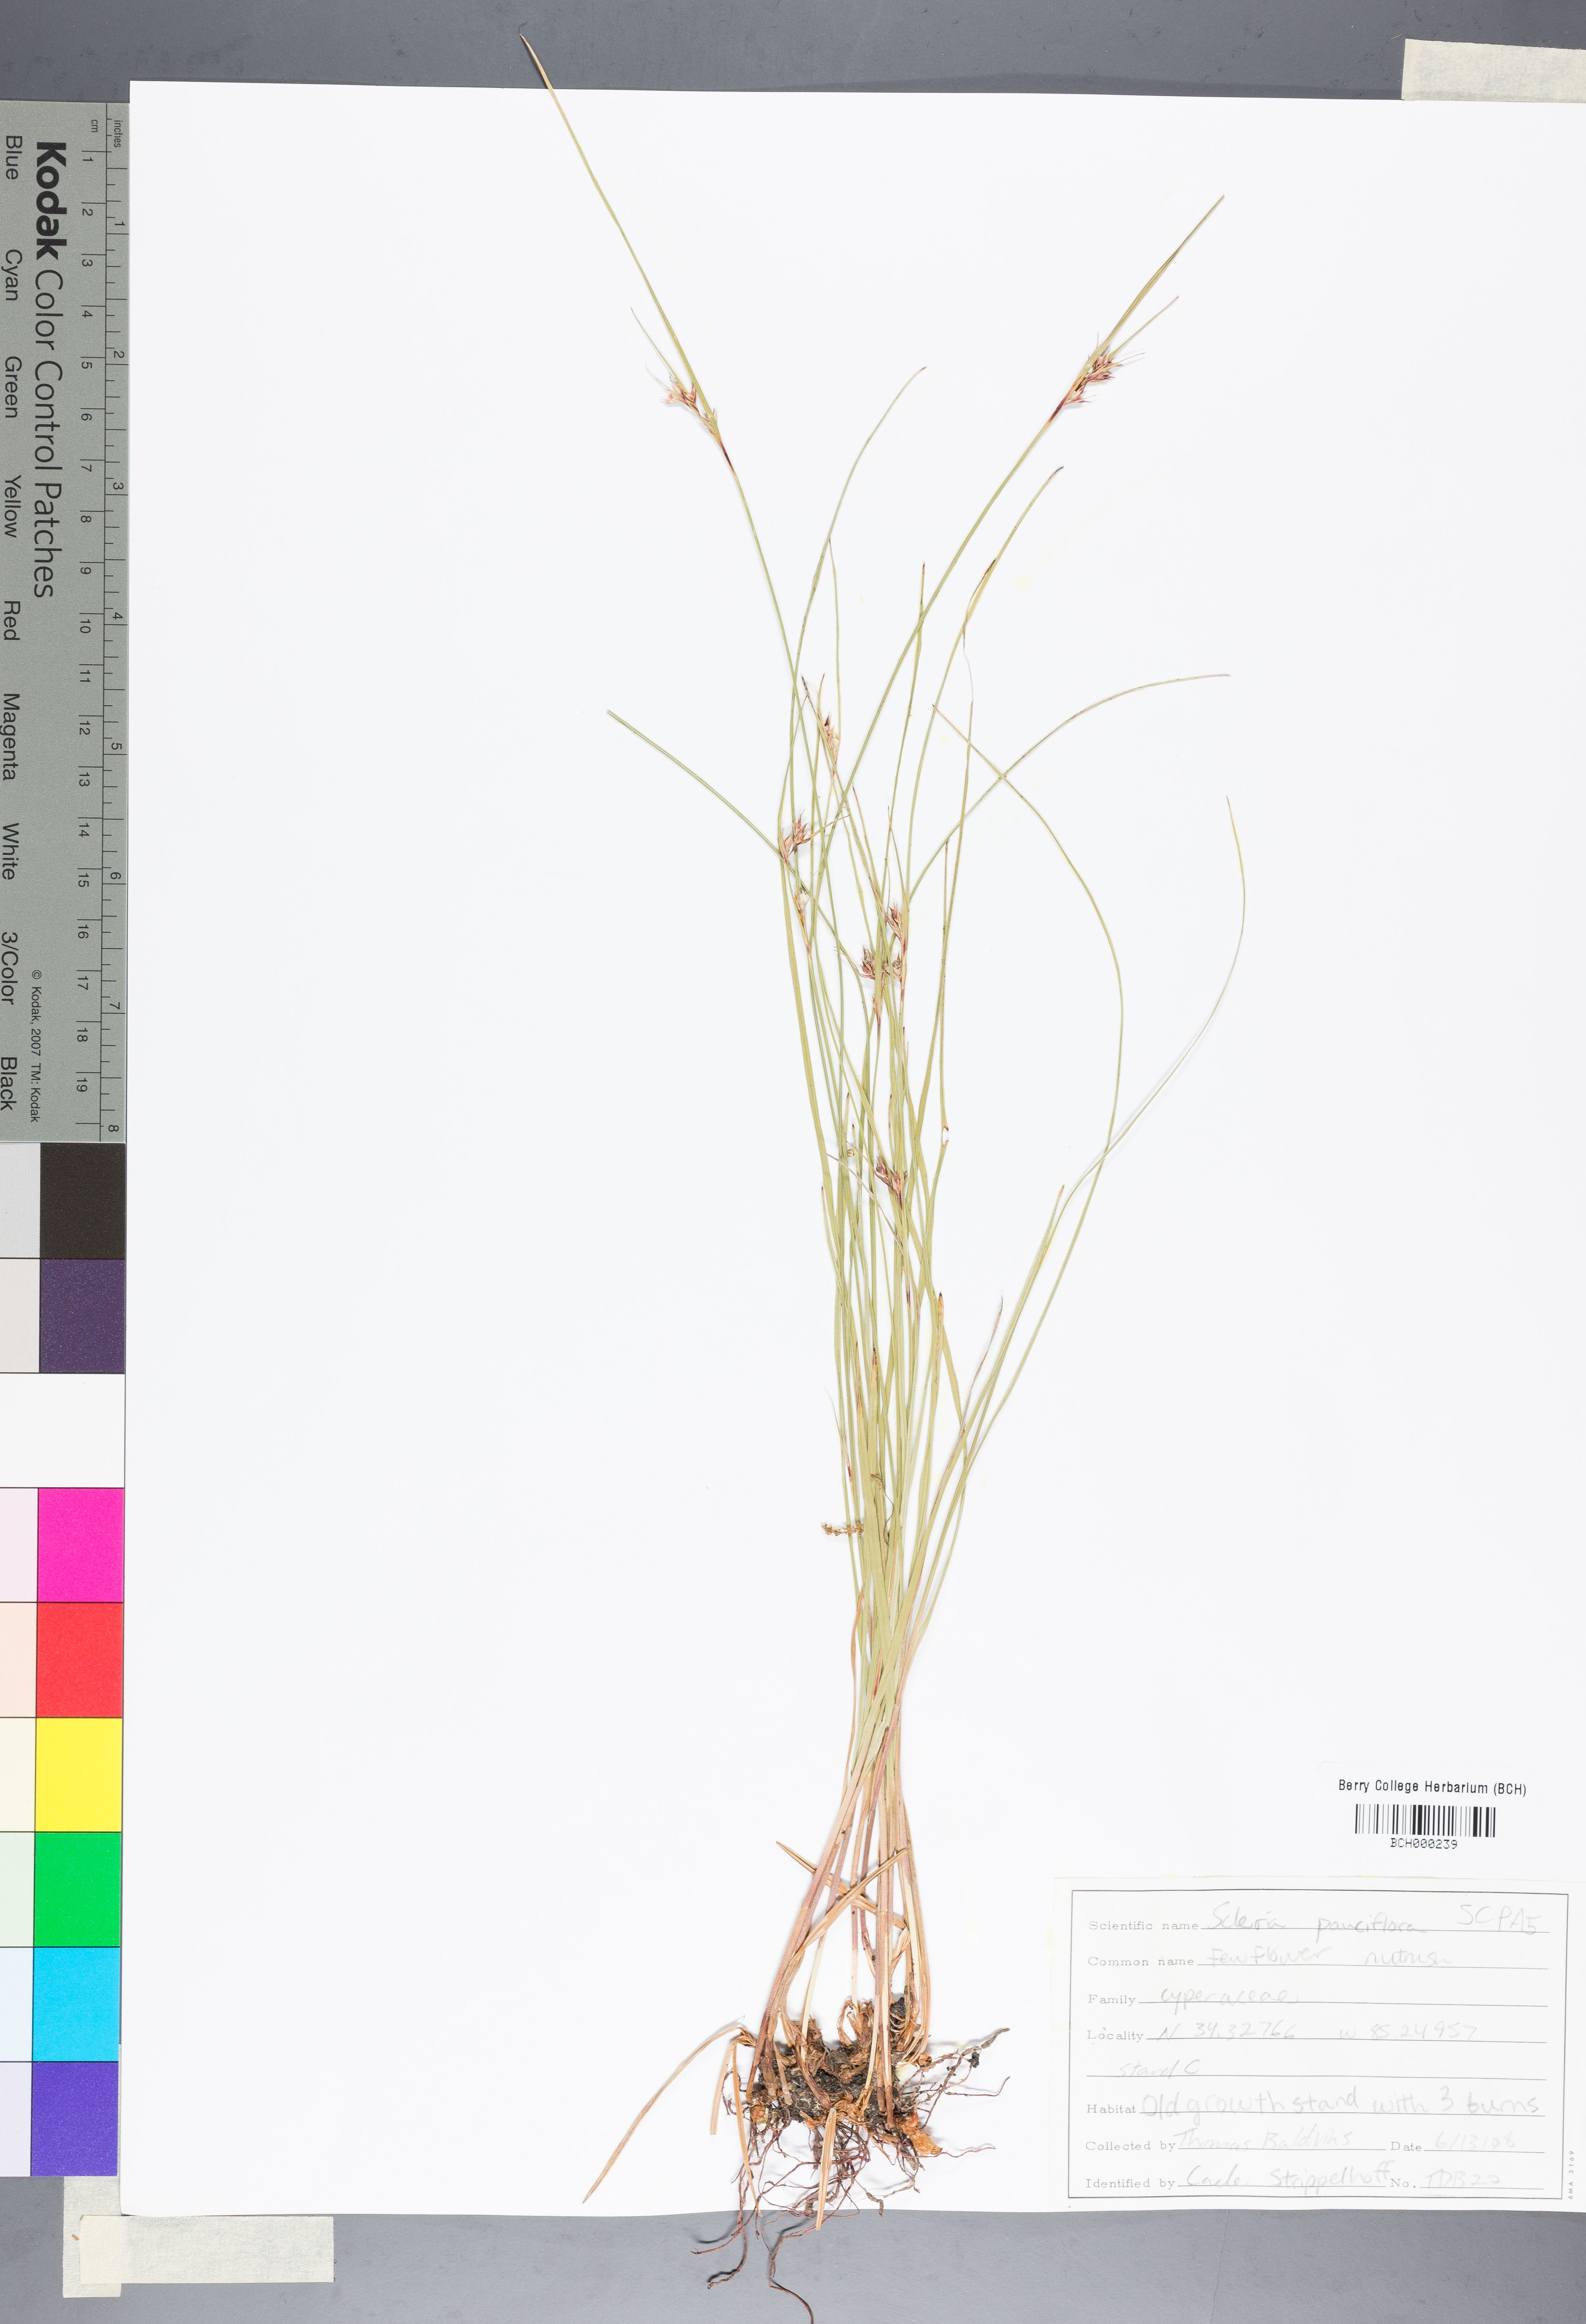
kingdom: Plantae
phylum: Tracheophyta
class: Liliopsida
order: Poales
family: Cyperaceae
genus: Scleria
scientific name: Scleria pauciflora
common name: Few-flowered nutrush
